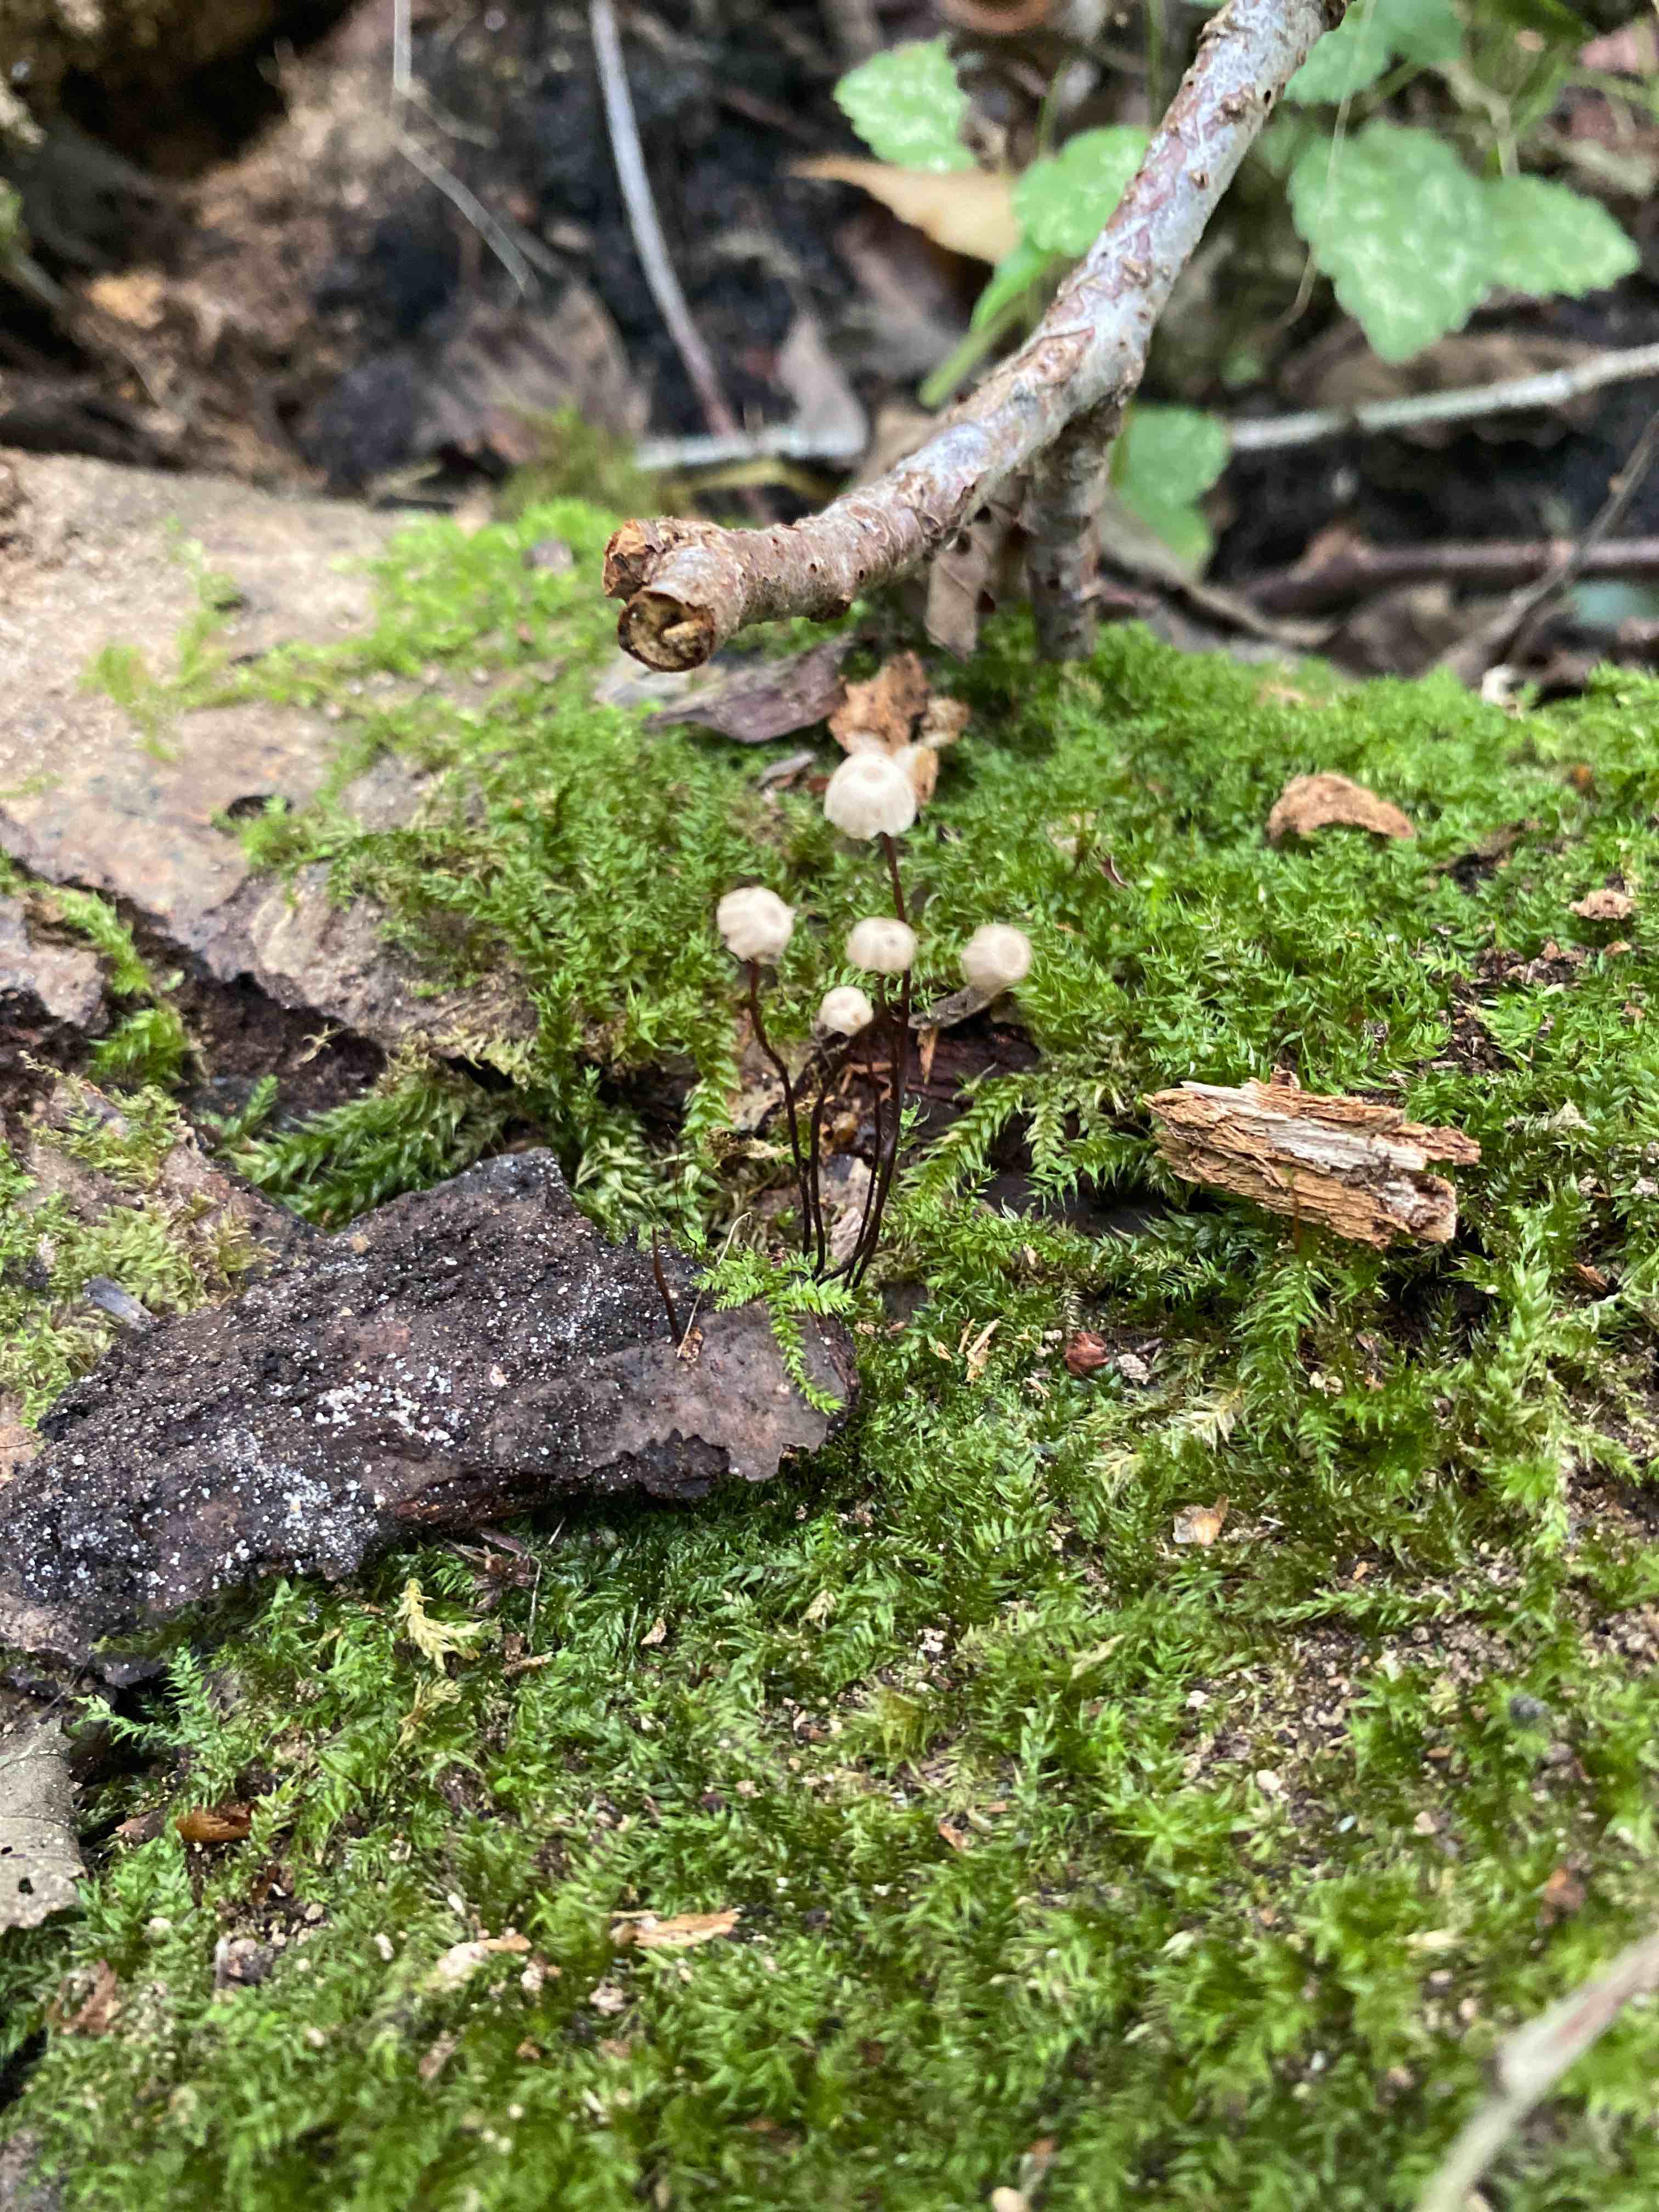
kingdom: Fungi
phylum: Basidiomycota
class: Agaricomycetes
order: Agaricales
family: Marasmiaceae
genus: Marasmius
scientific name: Marasmius rotula
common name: hjul-bruskhat
